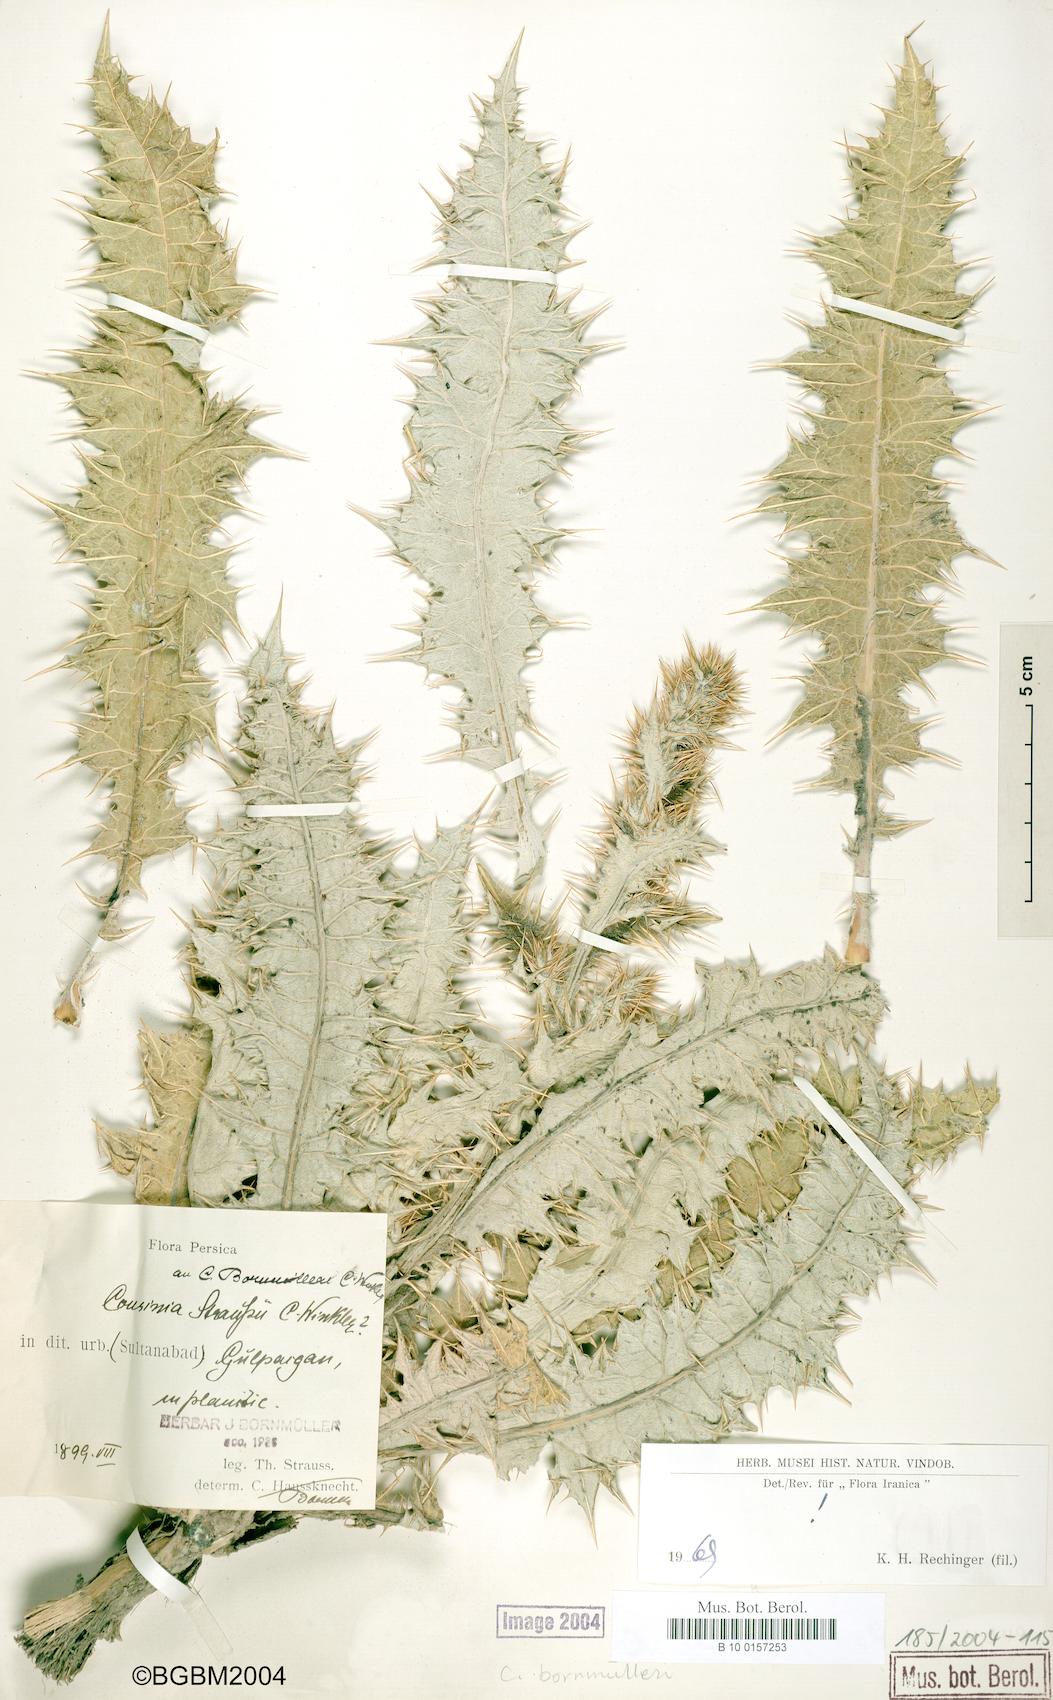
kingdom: Plantae
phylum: Tracheophyta
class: Magnoliopsida
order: Asterales
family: Asteraceae
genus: Cousinia
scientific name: Cousinia onopordioides
